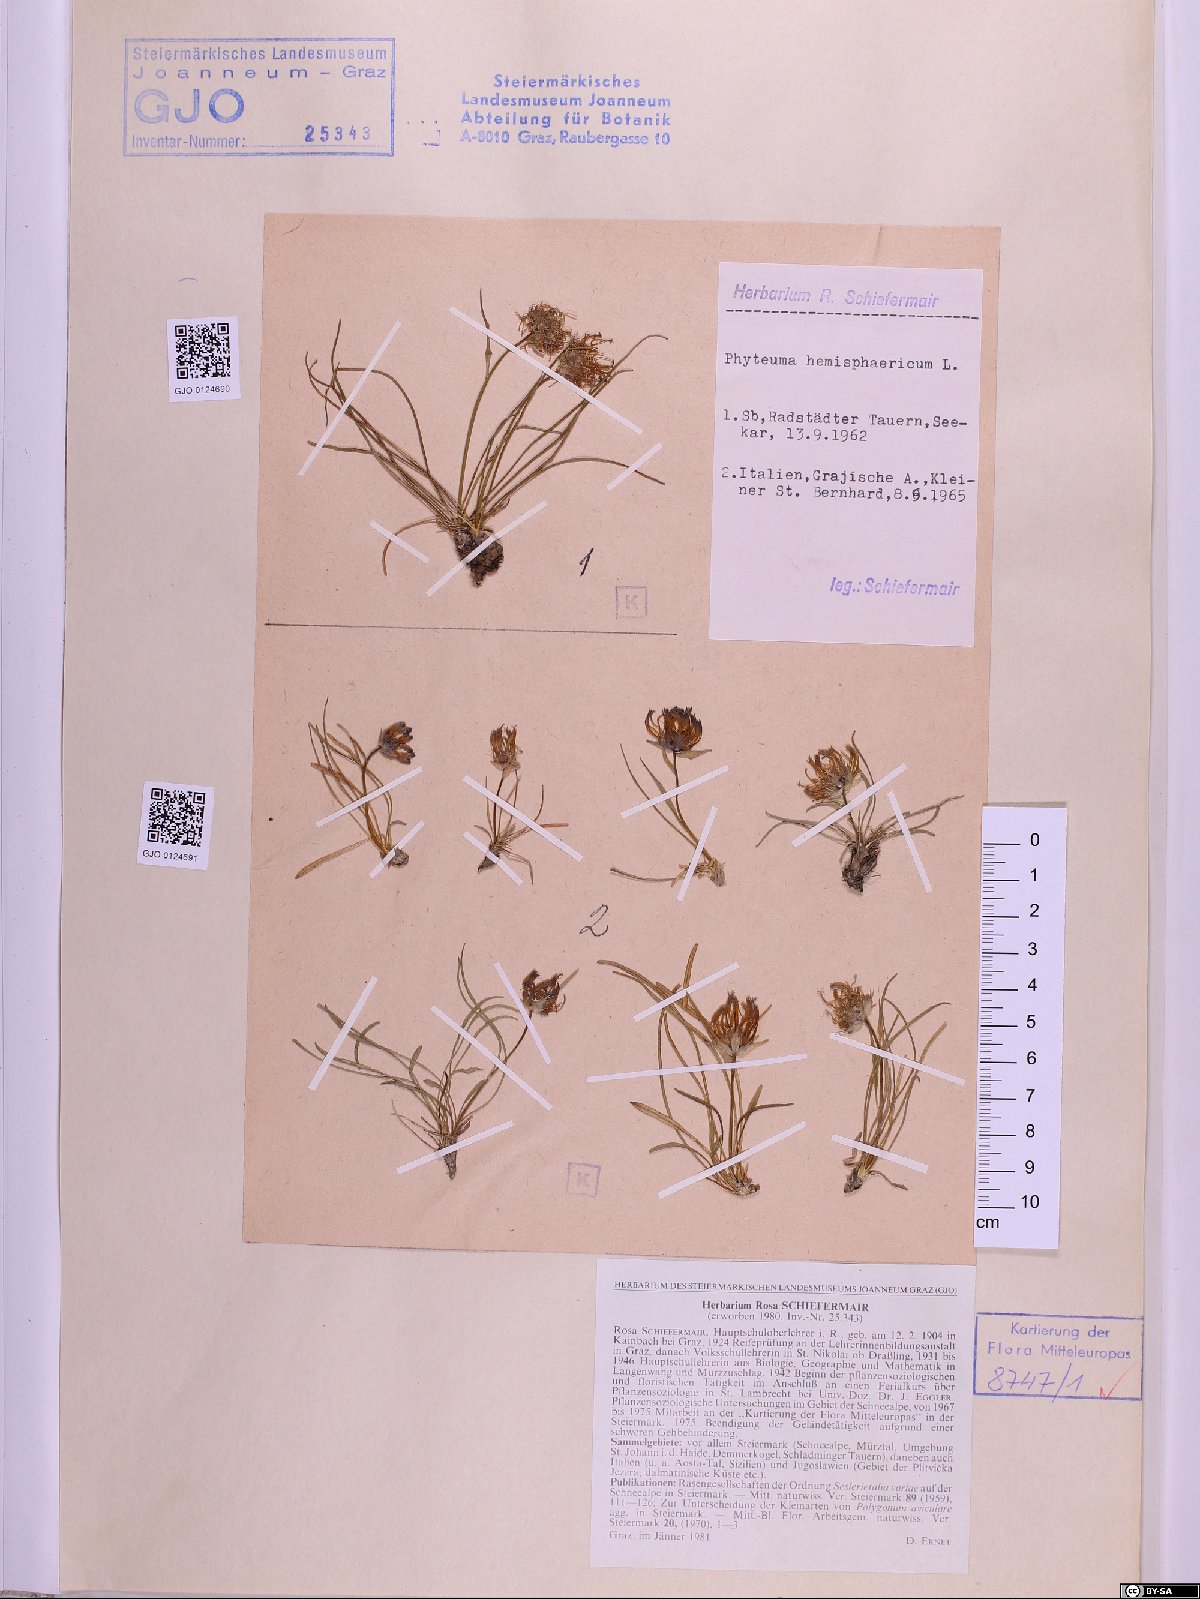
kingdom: Plantae
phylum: Tracheophyta
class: Magnoliopsida
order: Asterales
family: Campanulaceae
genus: Phyteuma
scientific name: Phyteuma hemisphaericum
